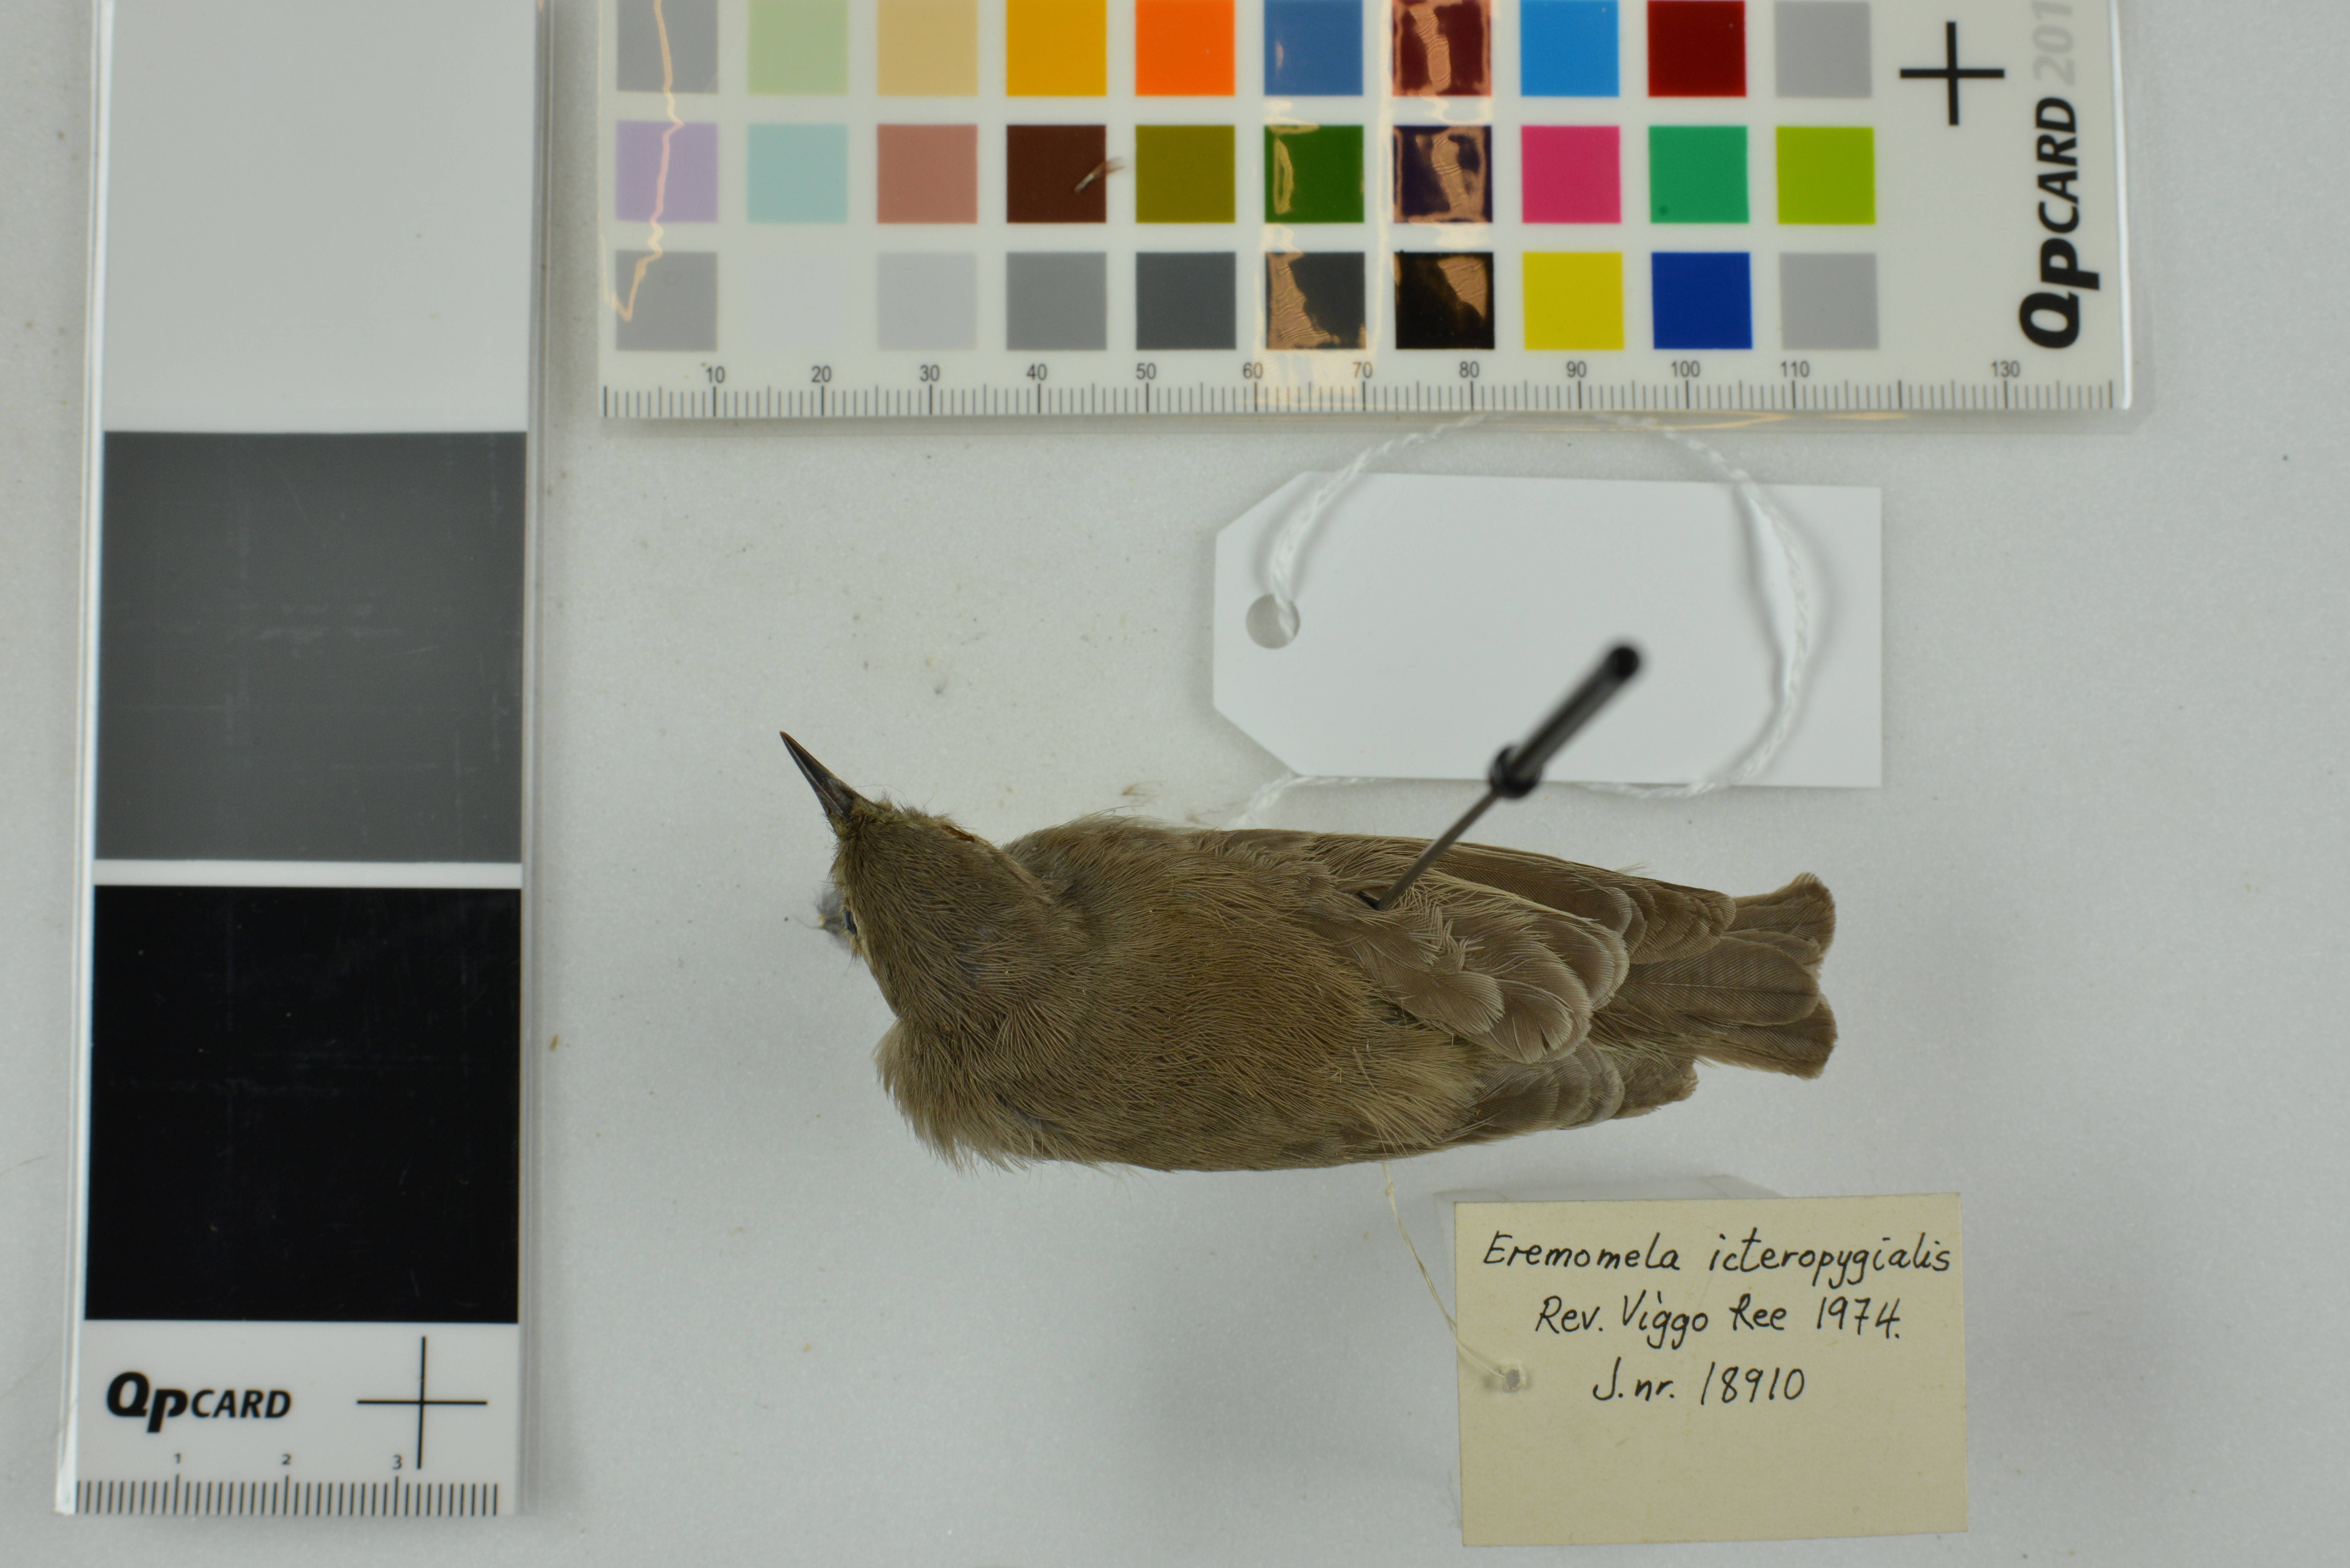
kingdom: Animalia
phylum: Chordata
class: Aves
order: Passeriformes
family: Cisticolidae
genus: Eremomela
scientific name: Eremomela icteropygialis
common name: Yellow-bellied eremomela
